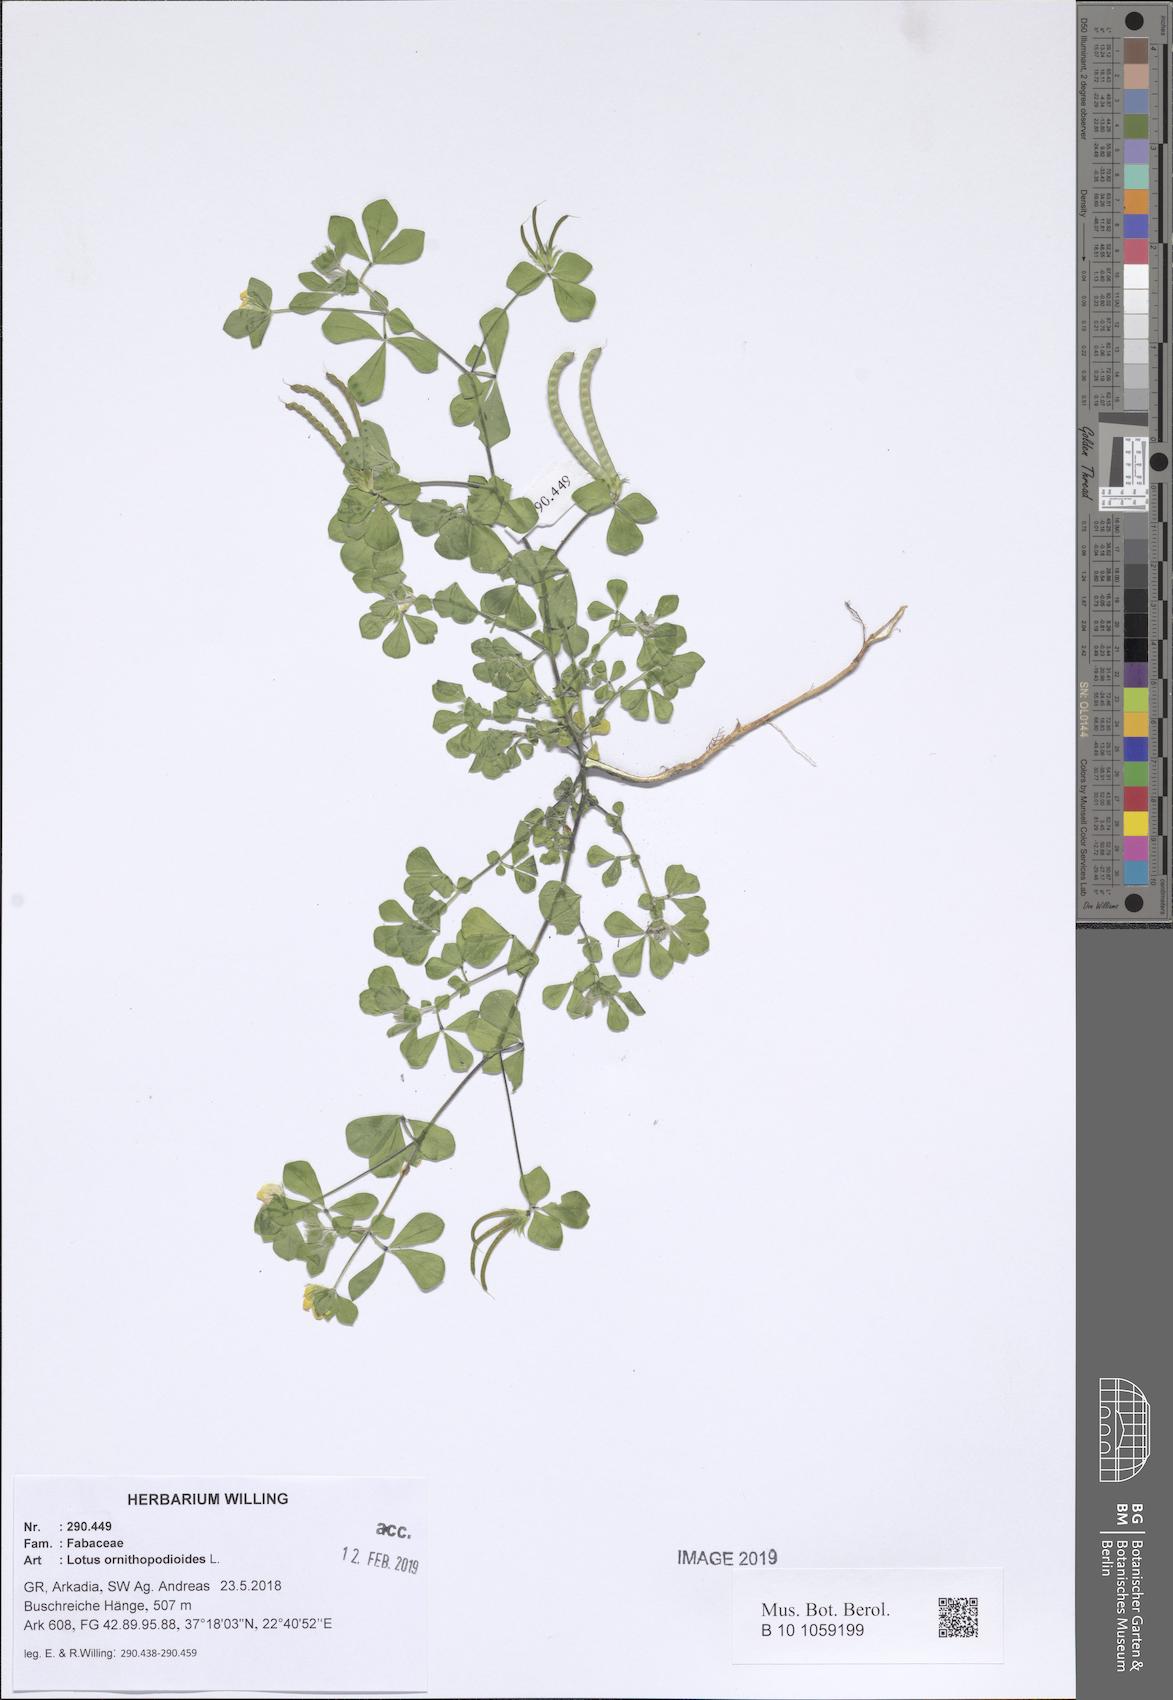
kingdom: Plantae
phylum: Tracheophyta
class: Magnoliopsida
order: Fabales
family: Fabaceae
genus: Lotus
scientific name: Lotus ornithopodioides
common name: Southern bird's-foot trefoil
